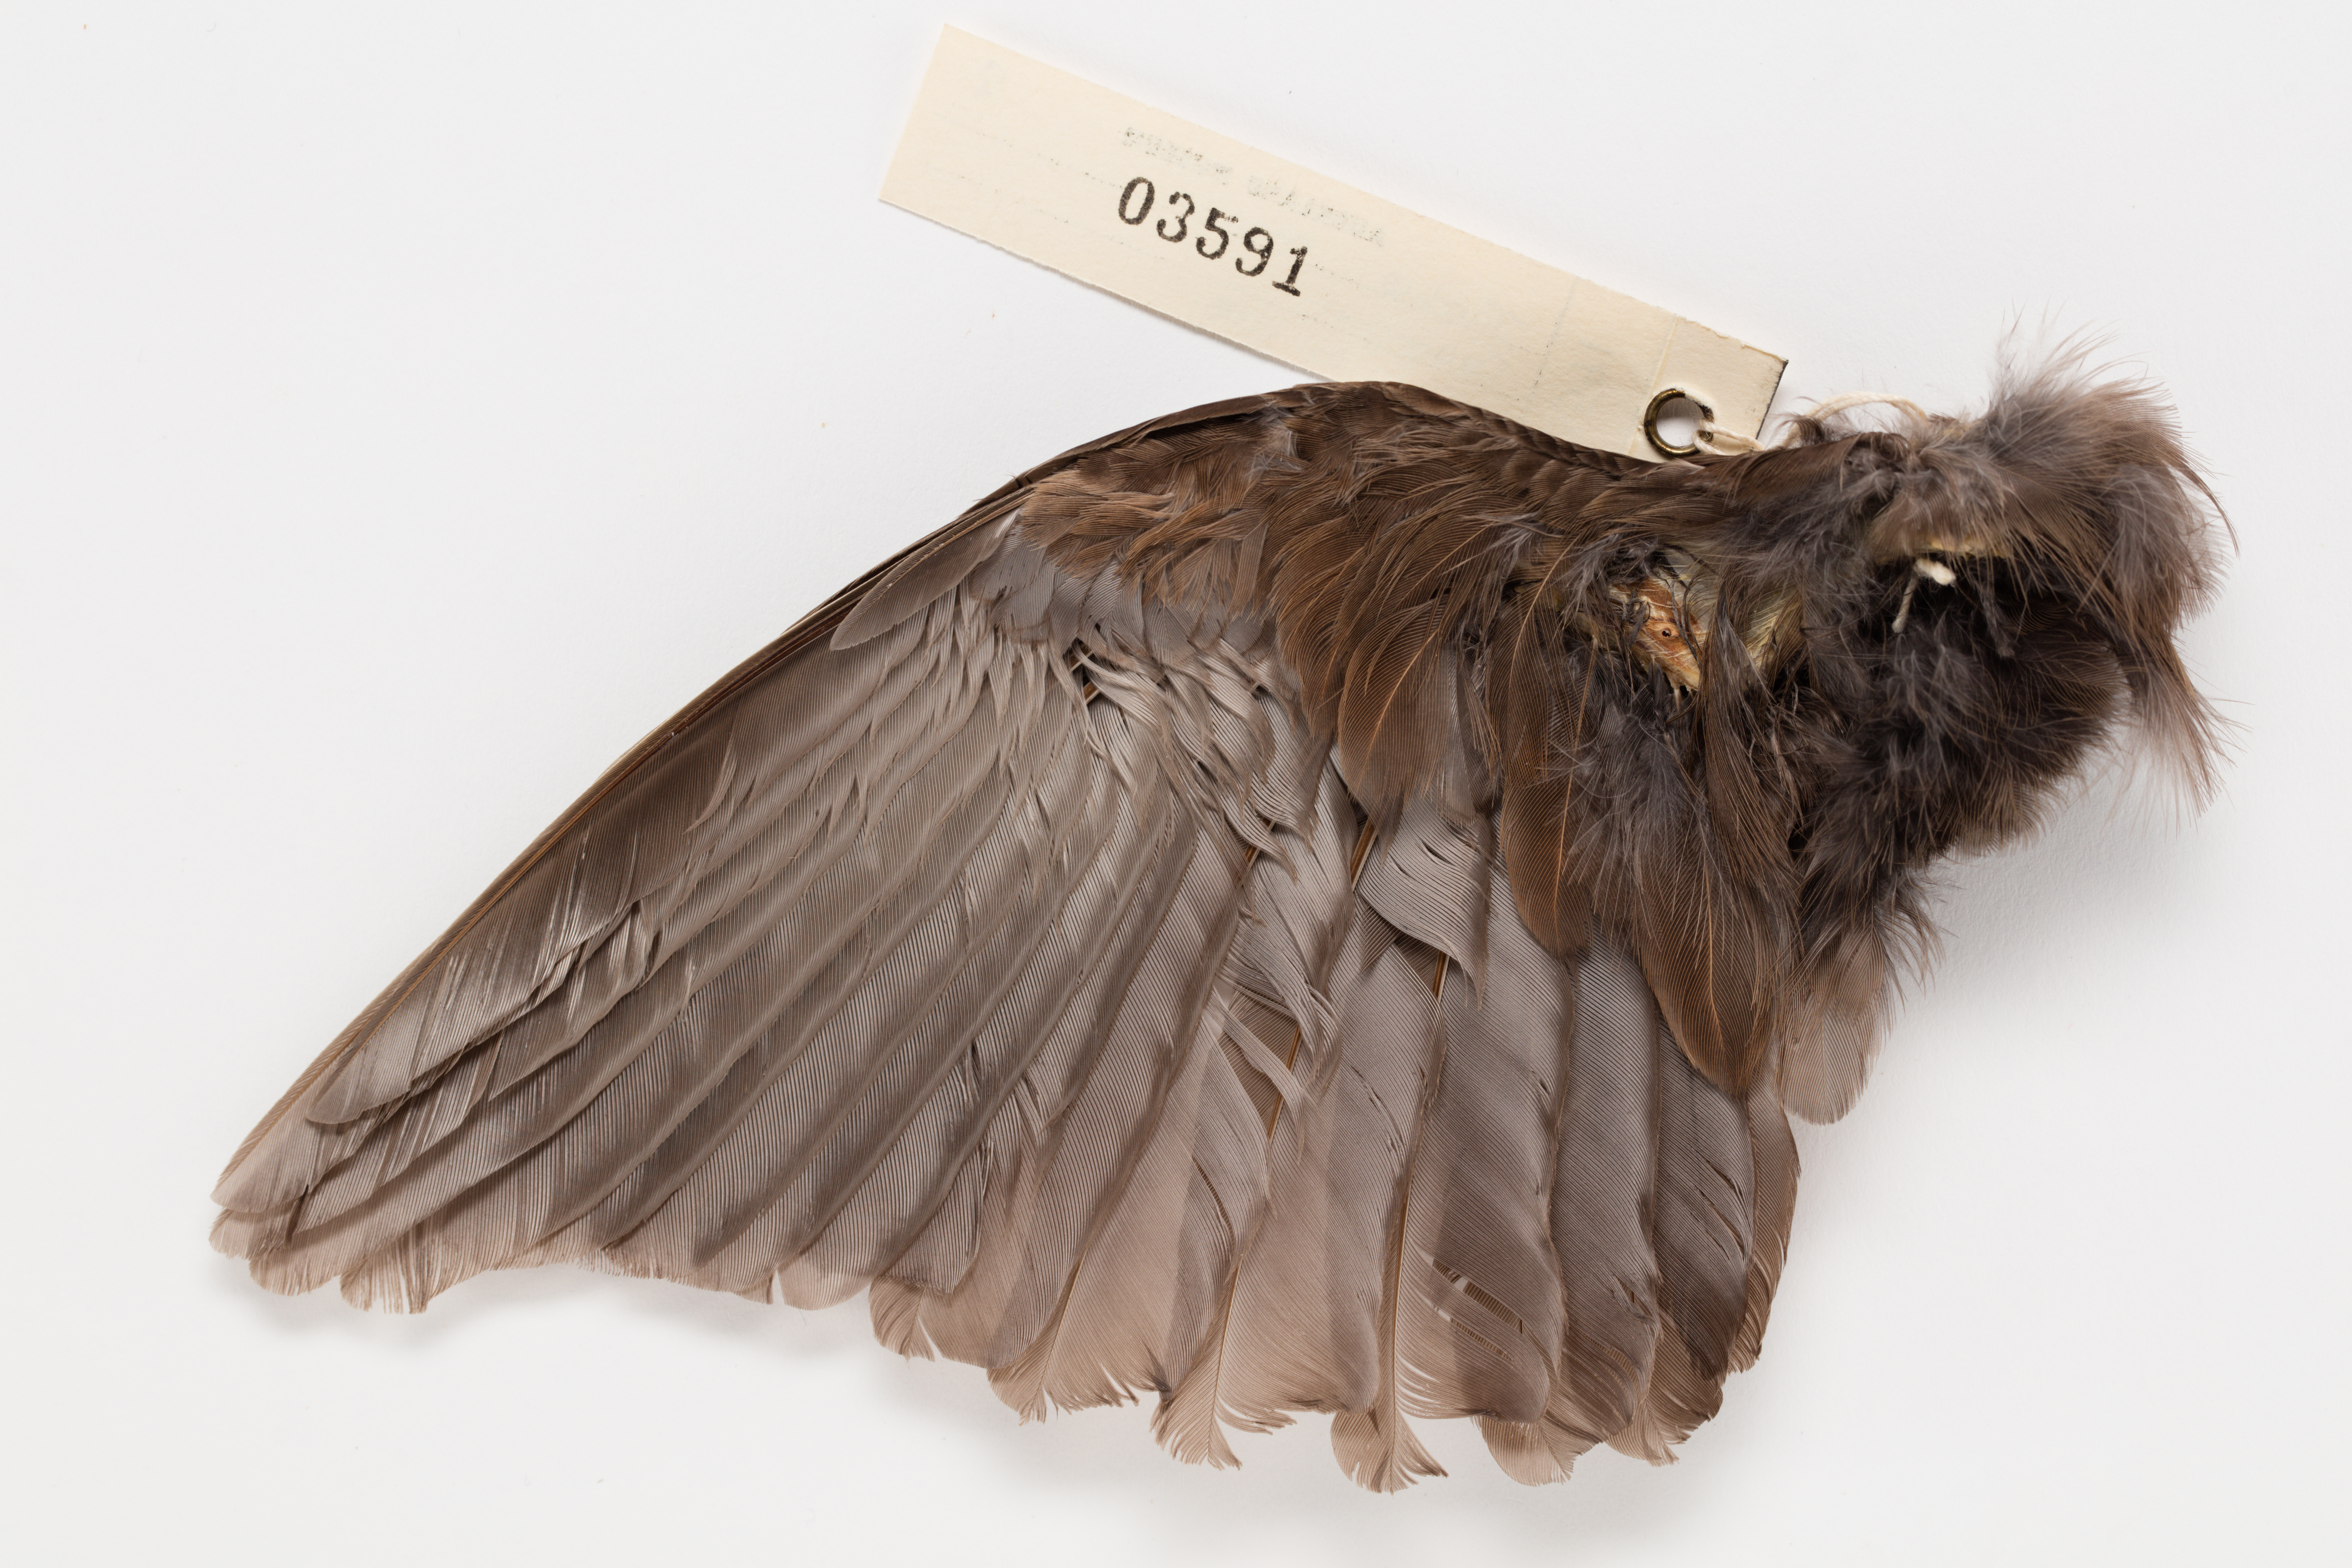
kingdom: Animalia
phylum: Chordata
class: Aves
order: Passeriformes
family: Turdidae
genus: Turdus
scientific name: Turdus merula
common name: Common blackbird
